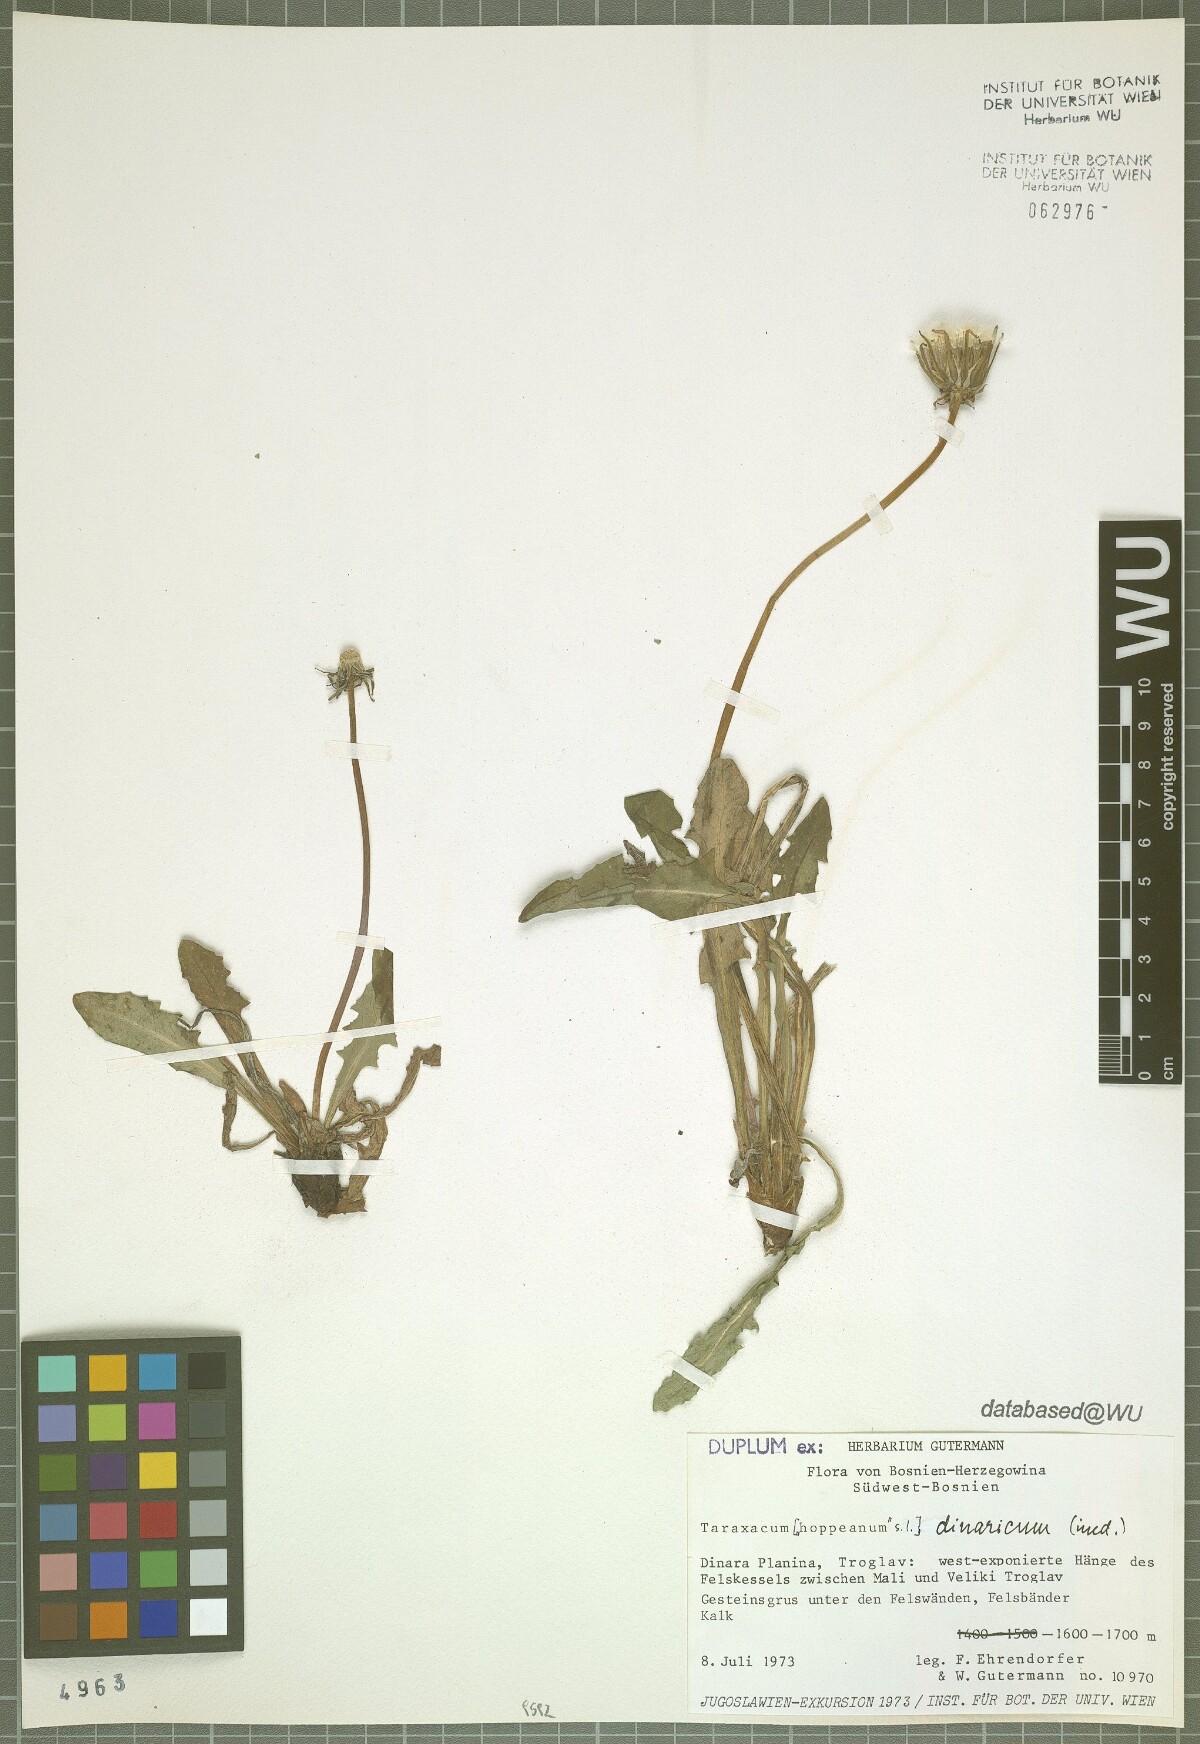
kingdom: Plantae
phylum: Tracheophyta
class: Magnoliopsida
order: Asterales
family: Asteraceae
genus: Taraxacum
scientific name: Taraxacum
